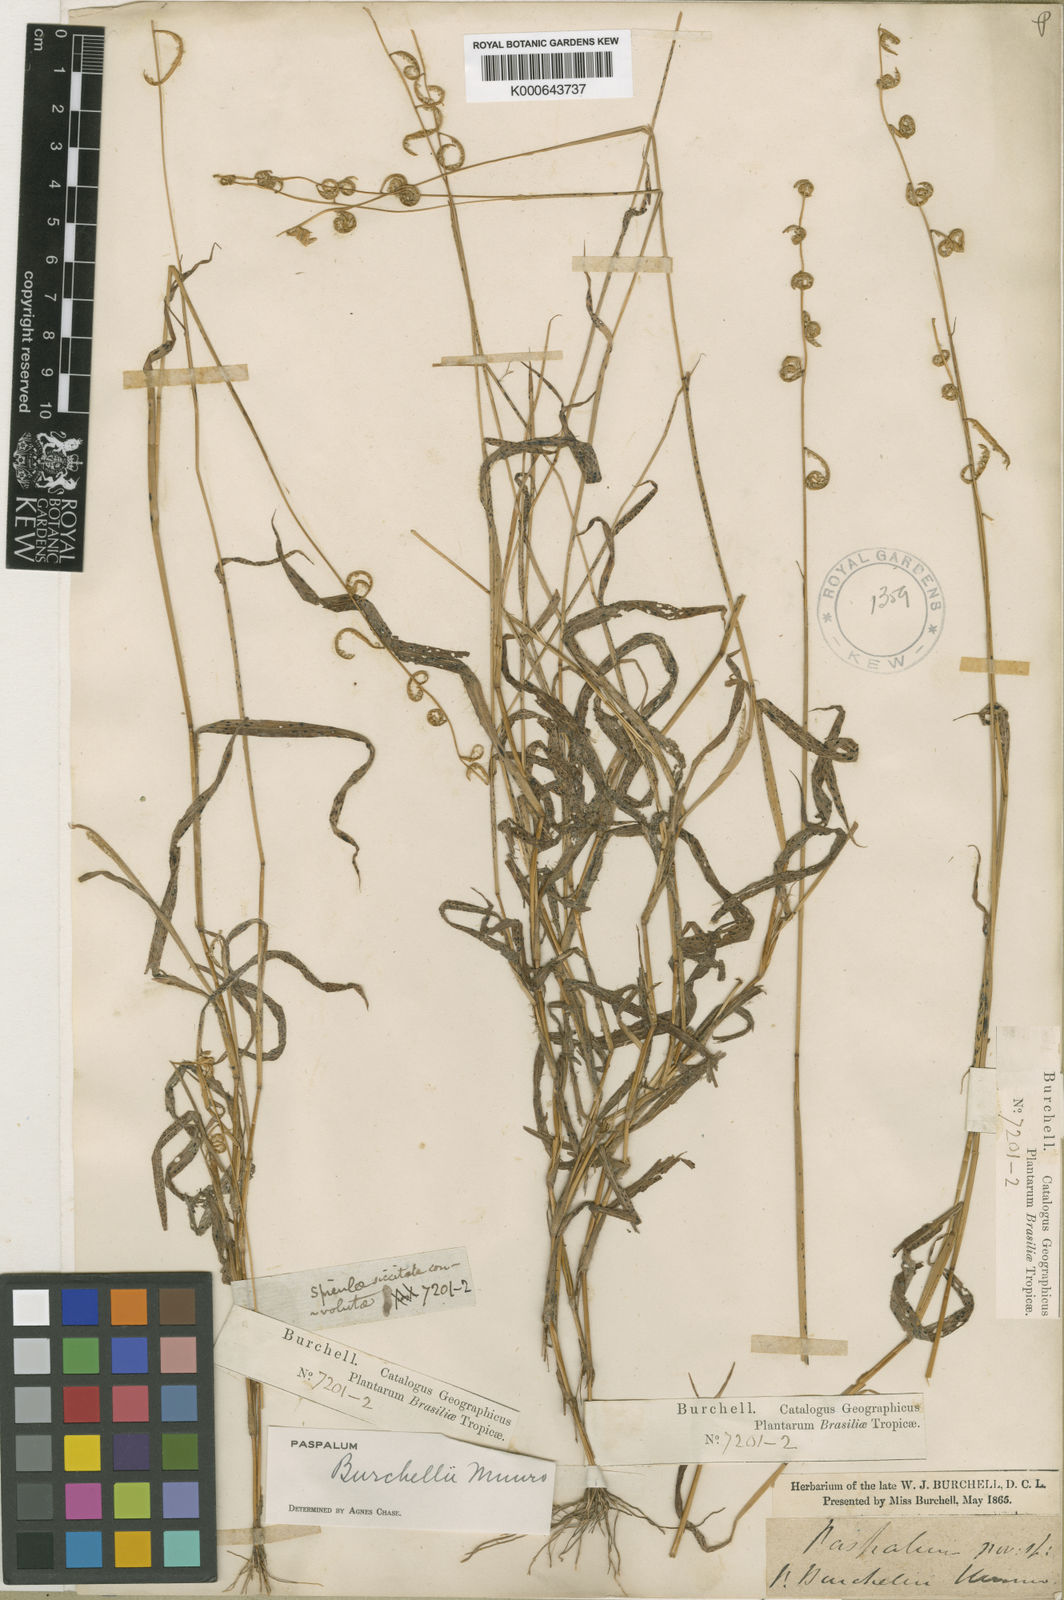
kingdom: Plantae
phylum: Tracheophyta
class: Liliopsida
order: Poales
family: Poaceae
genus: Paspalum
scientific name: Paspalum burchellii
